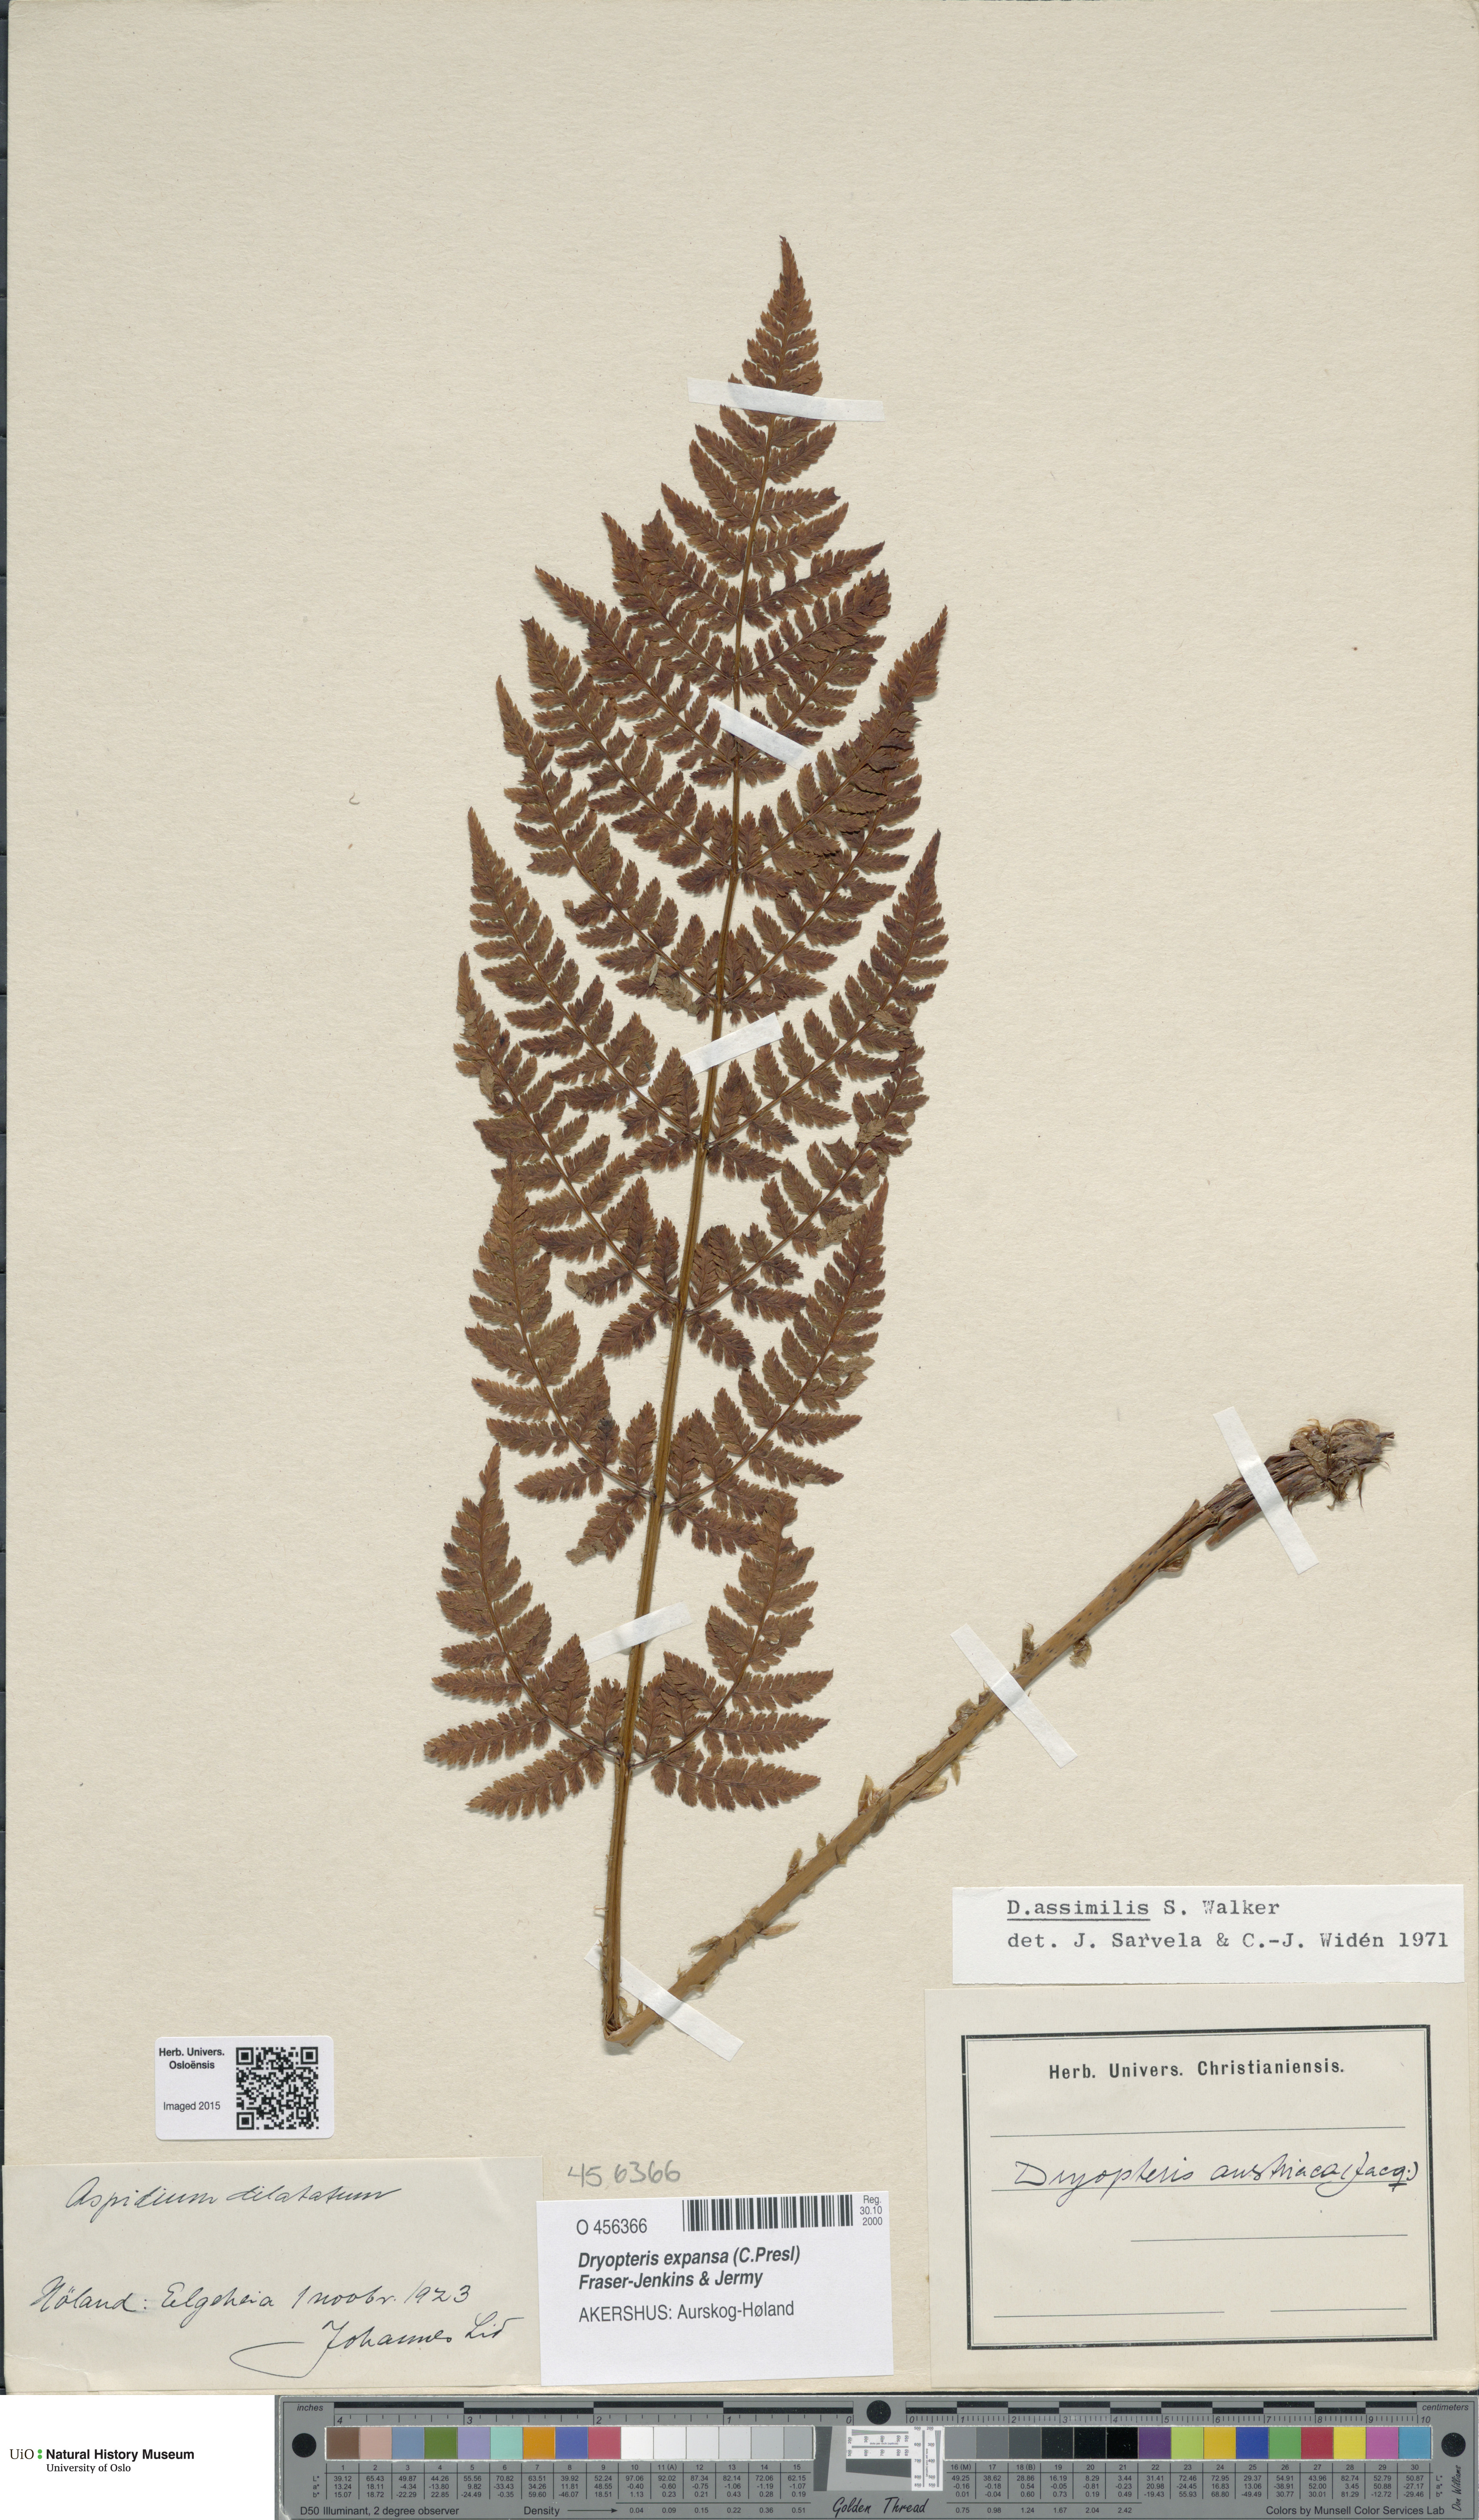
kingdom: Plantae
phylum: Tracheophyta
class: Polypodiopsida
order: Polypodiales
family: Dryopteridaceae
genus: Dryopteris
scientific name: Dryopteris expansa
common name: Northern buckler fern
